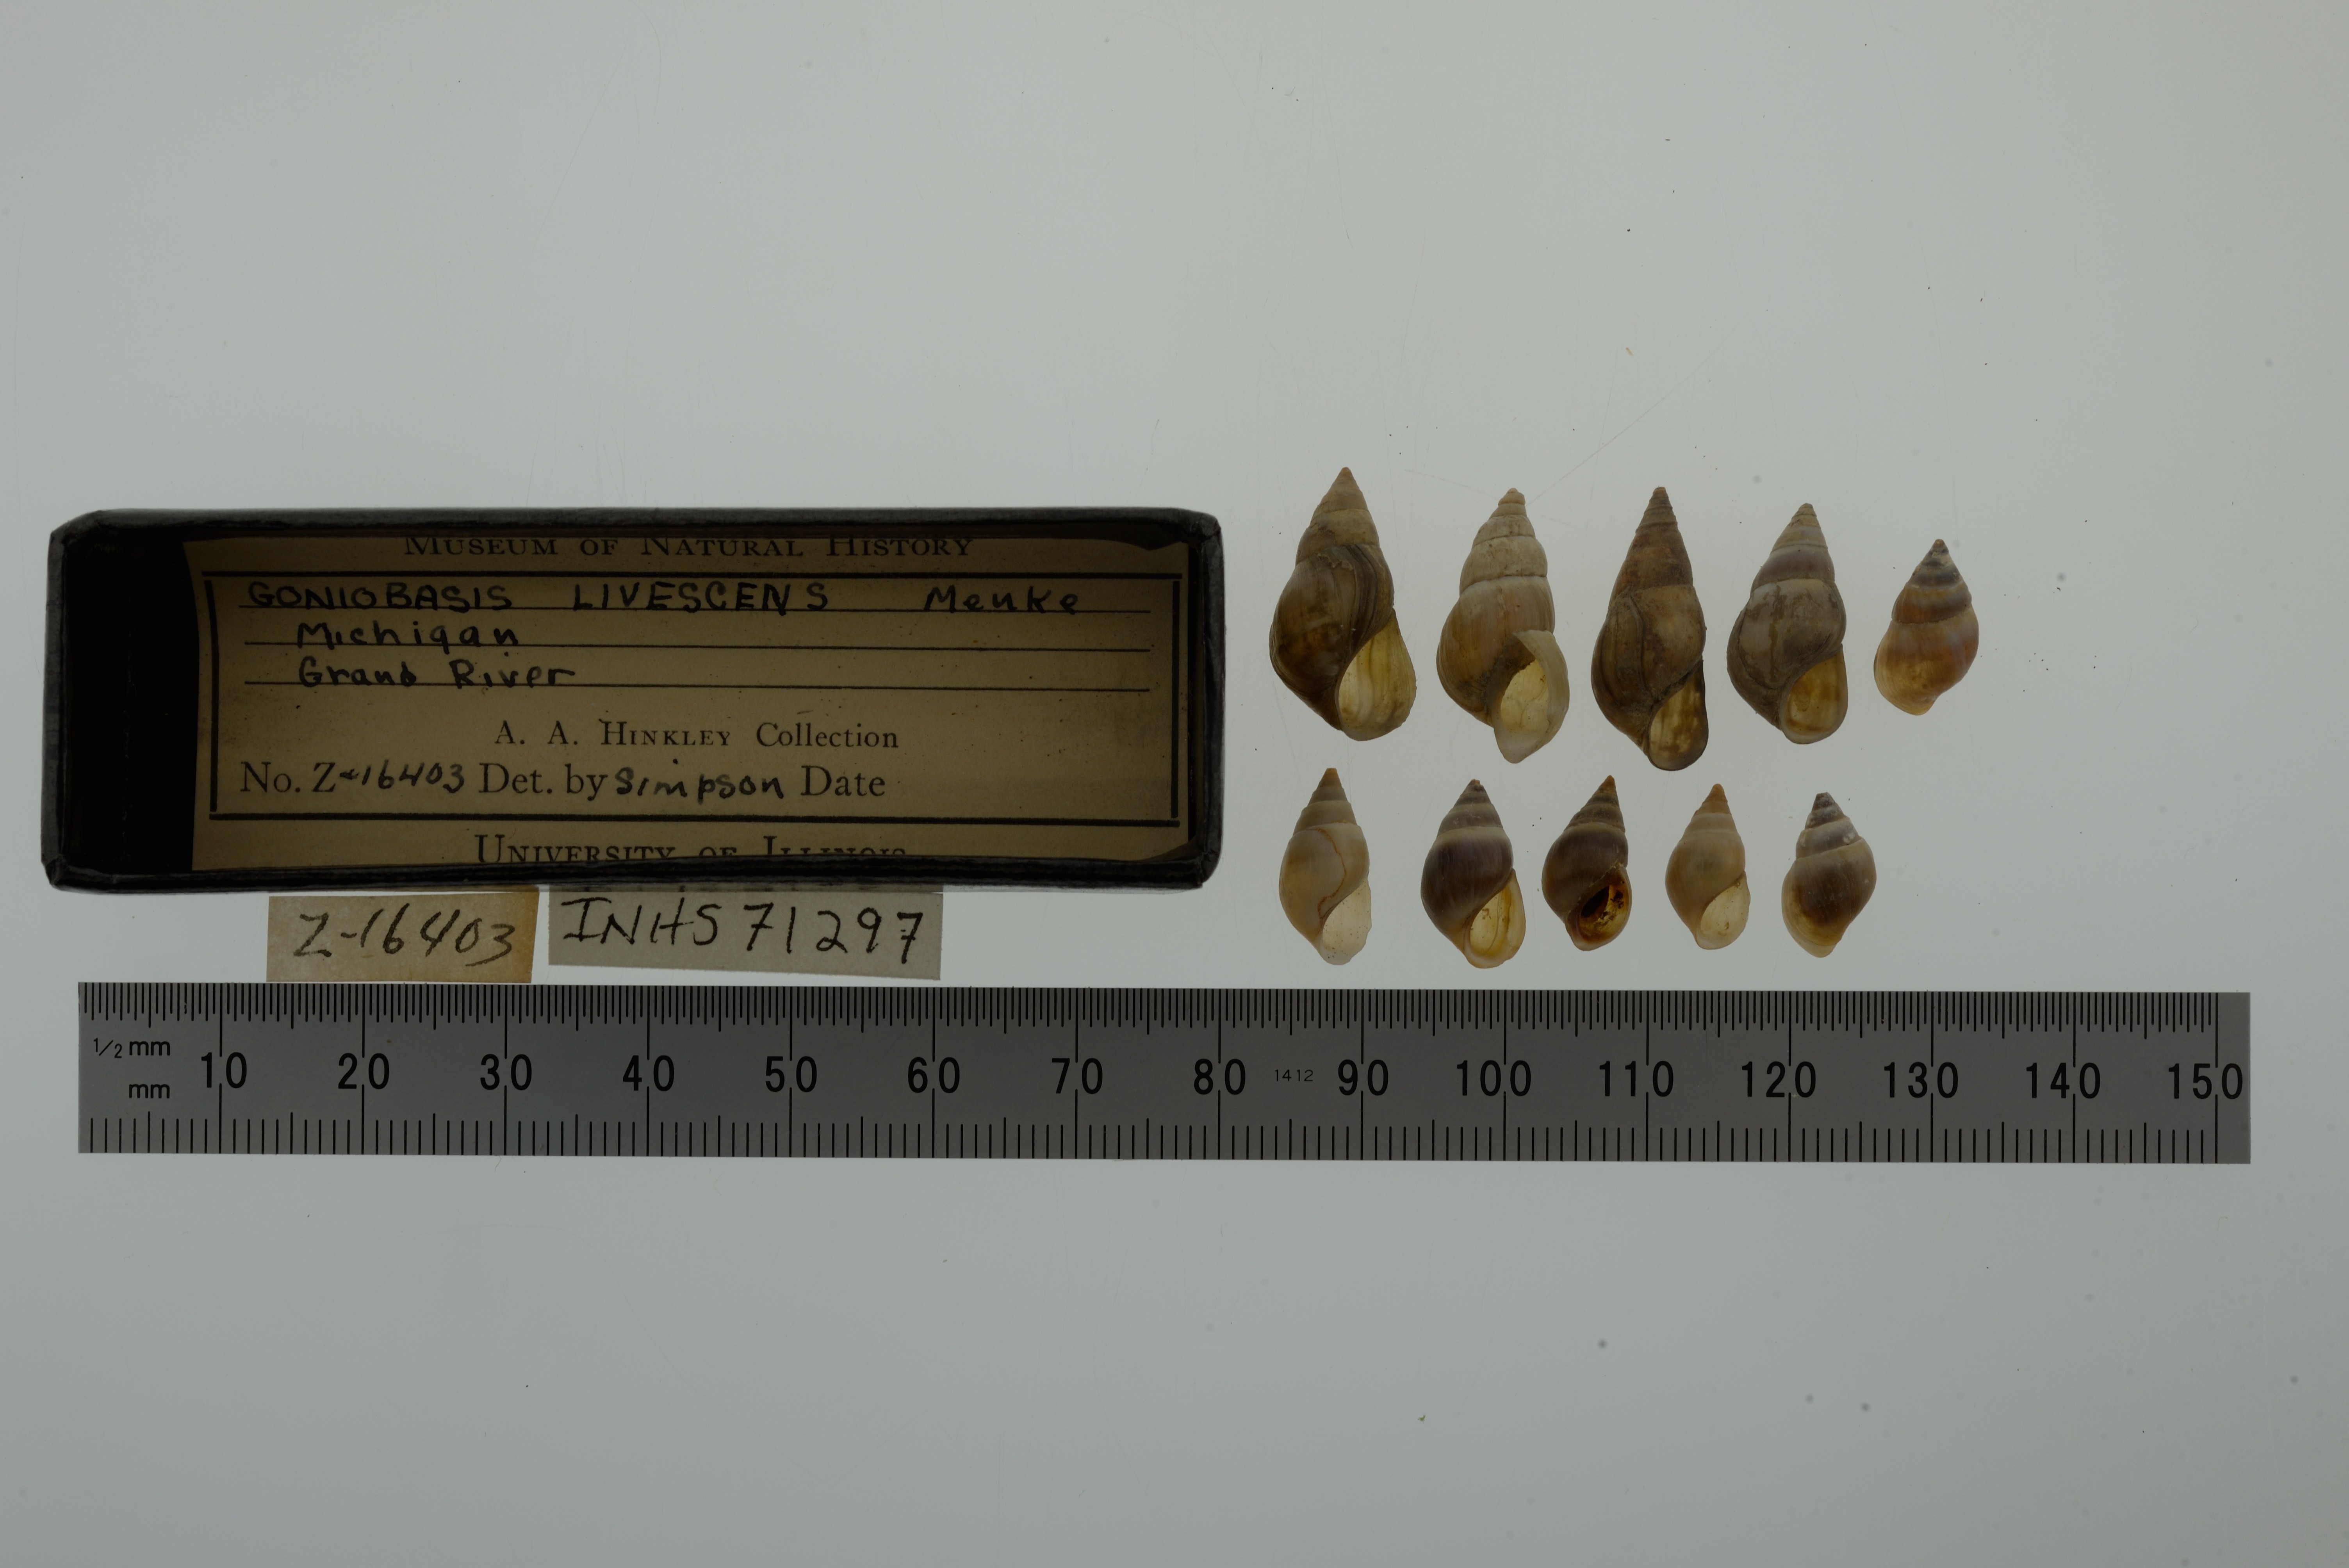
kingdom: Animalia
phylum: Mollusca
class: Gastropoda
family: Pleuroceridae
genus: Elimia
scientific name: Elimia livescens
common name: Liver elimia
